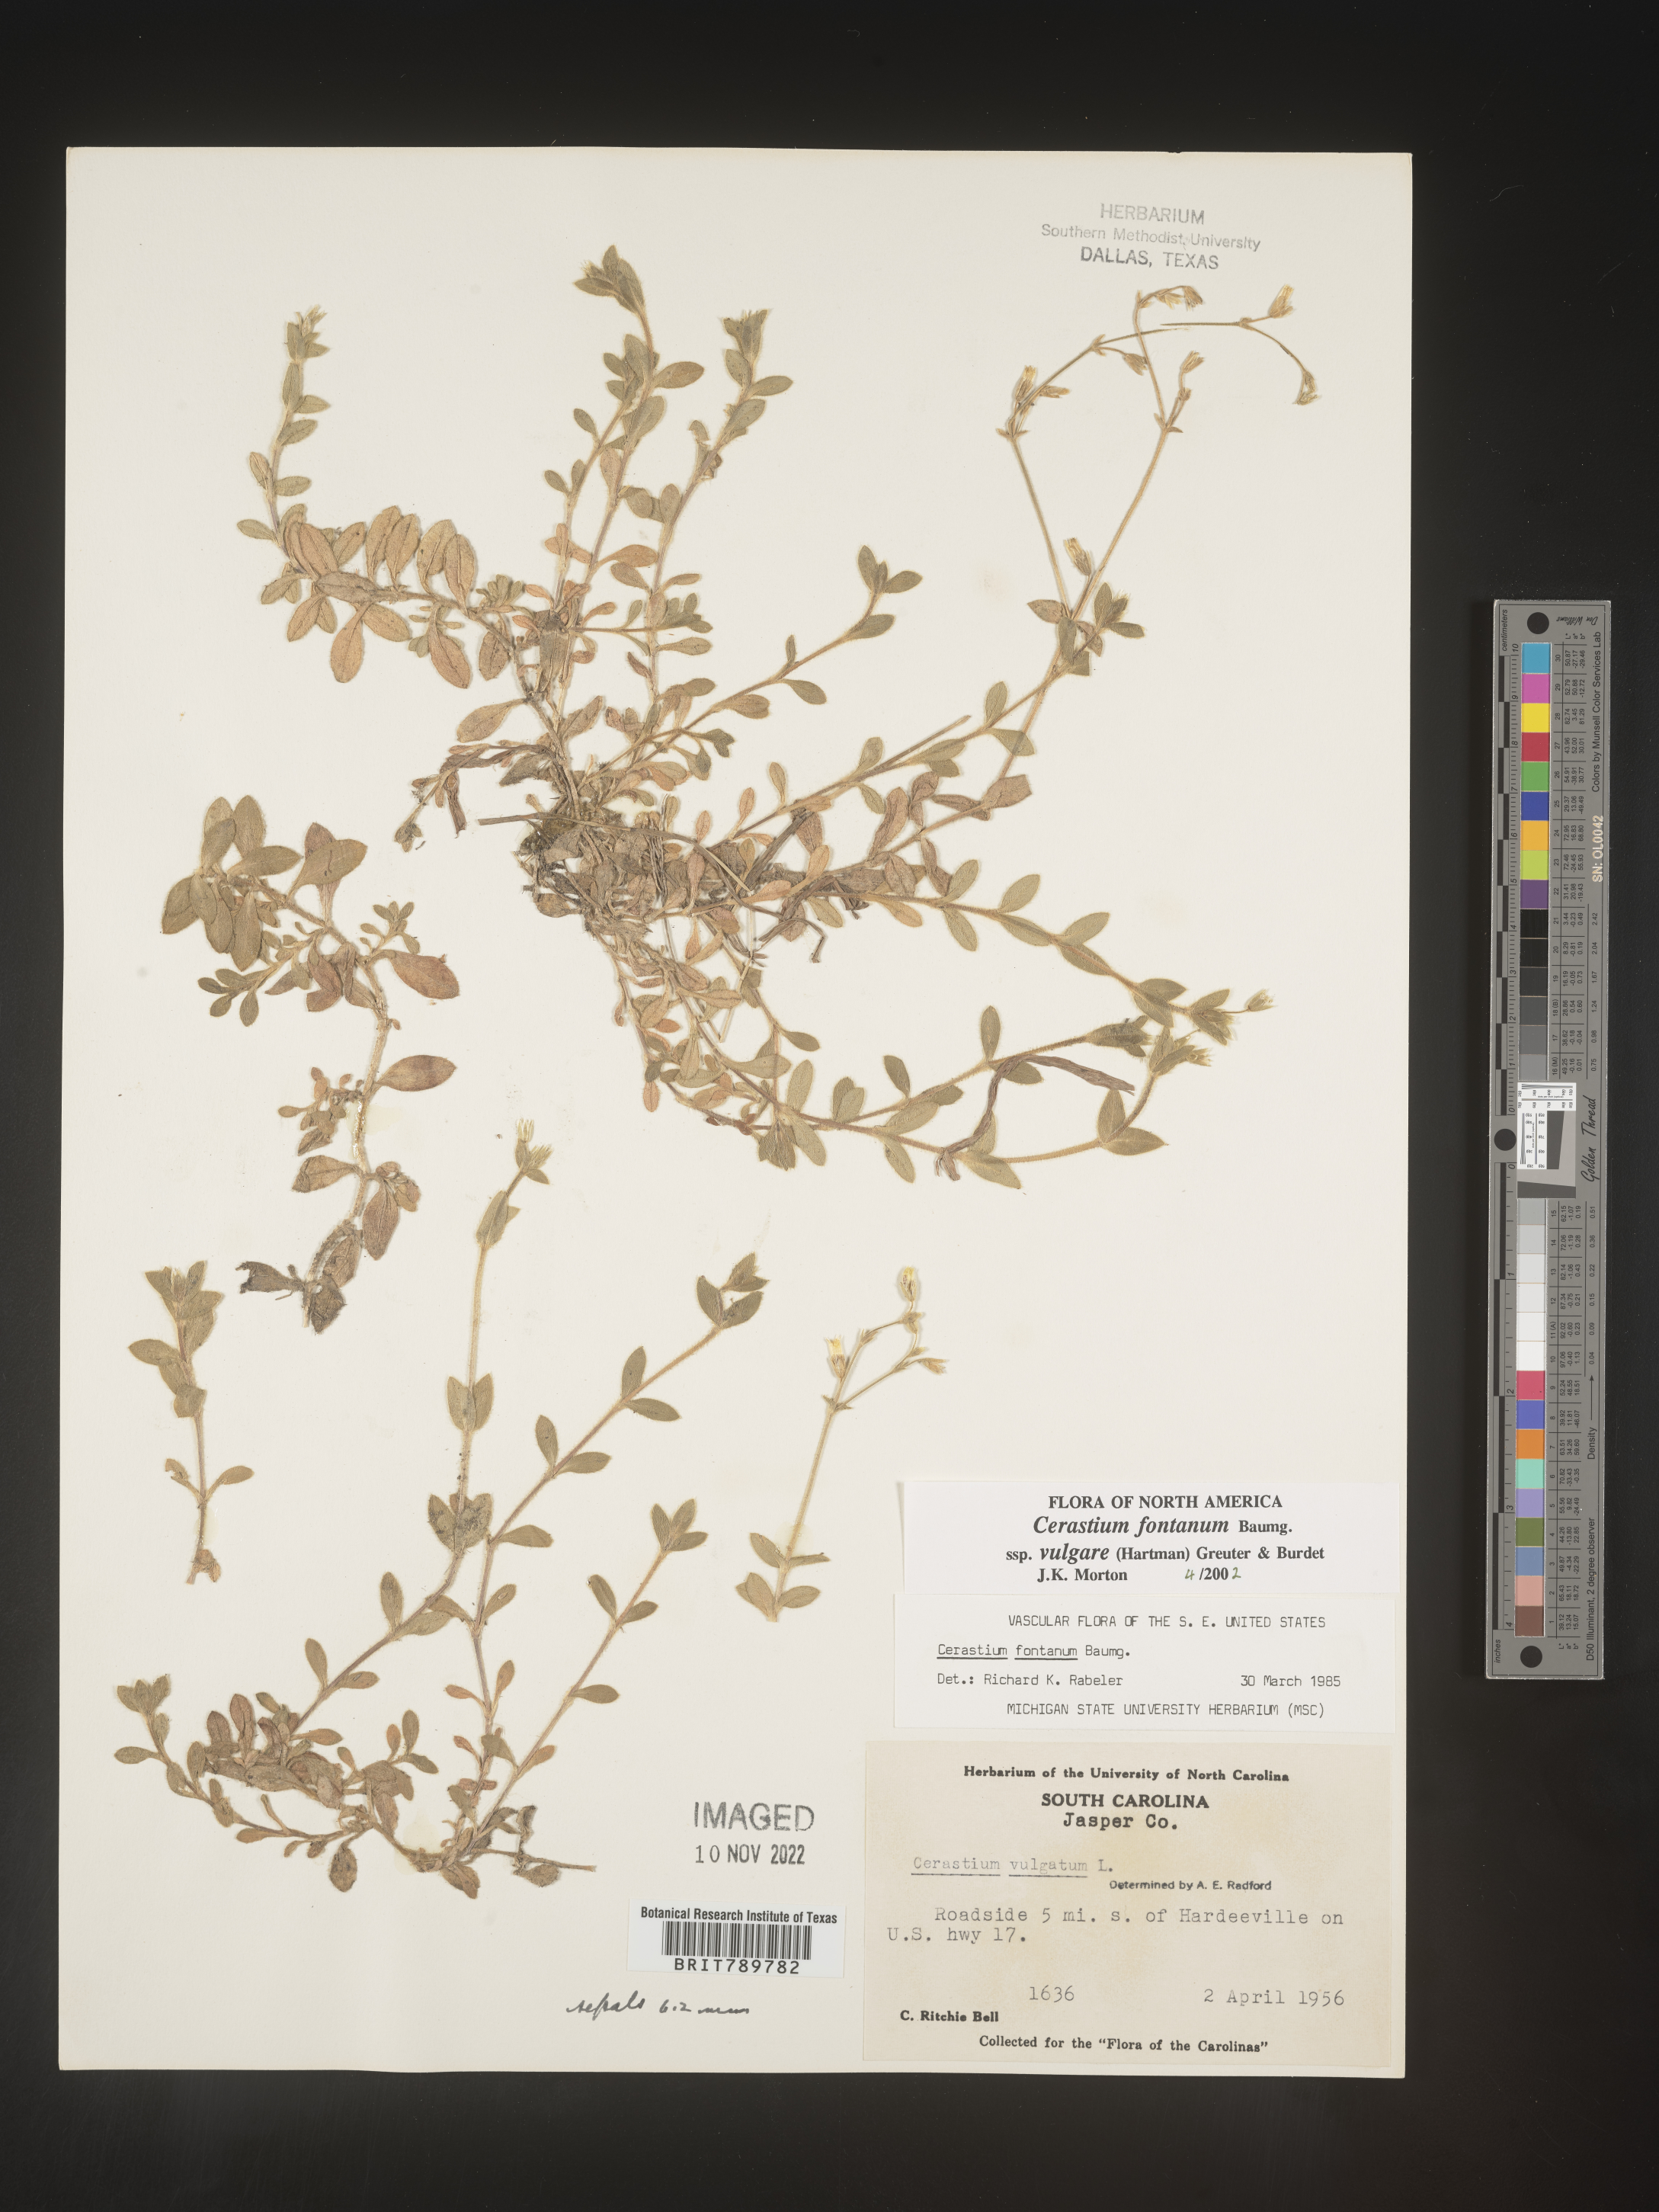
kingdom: Plantae
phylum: Tracheophyta
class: Magnoliopsida
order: Caryophyllales
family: Caryophyllaceae
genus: Cerastium
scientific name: Cerastium fontanum
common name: Common mouse-ear
